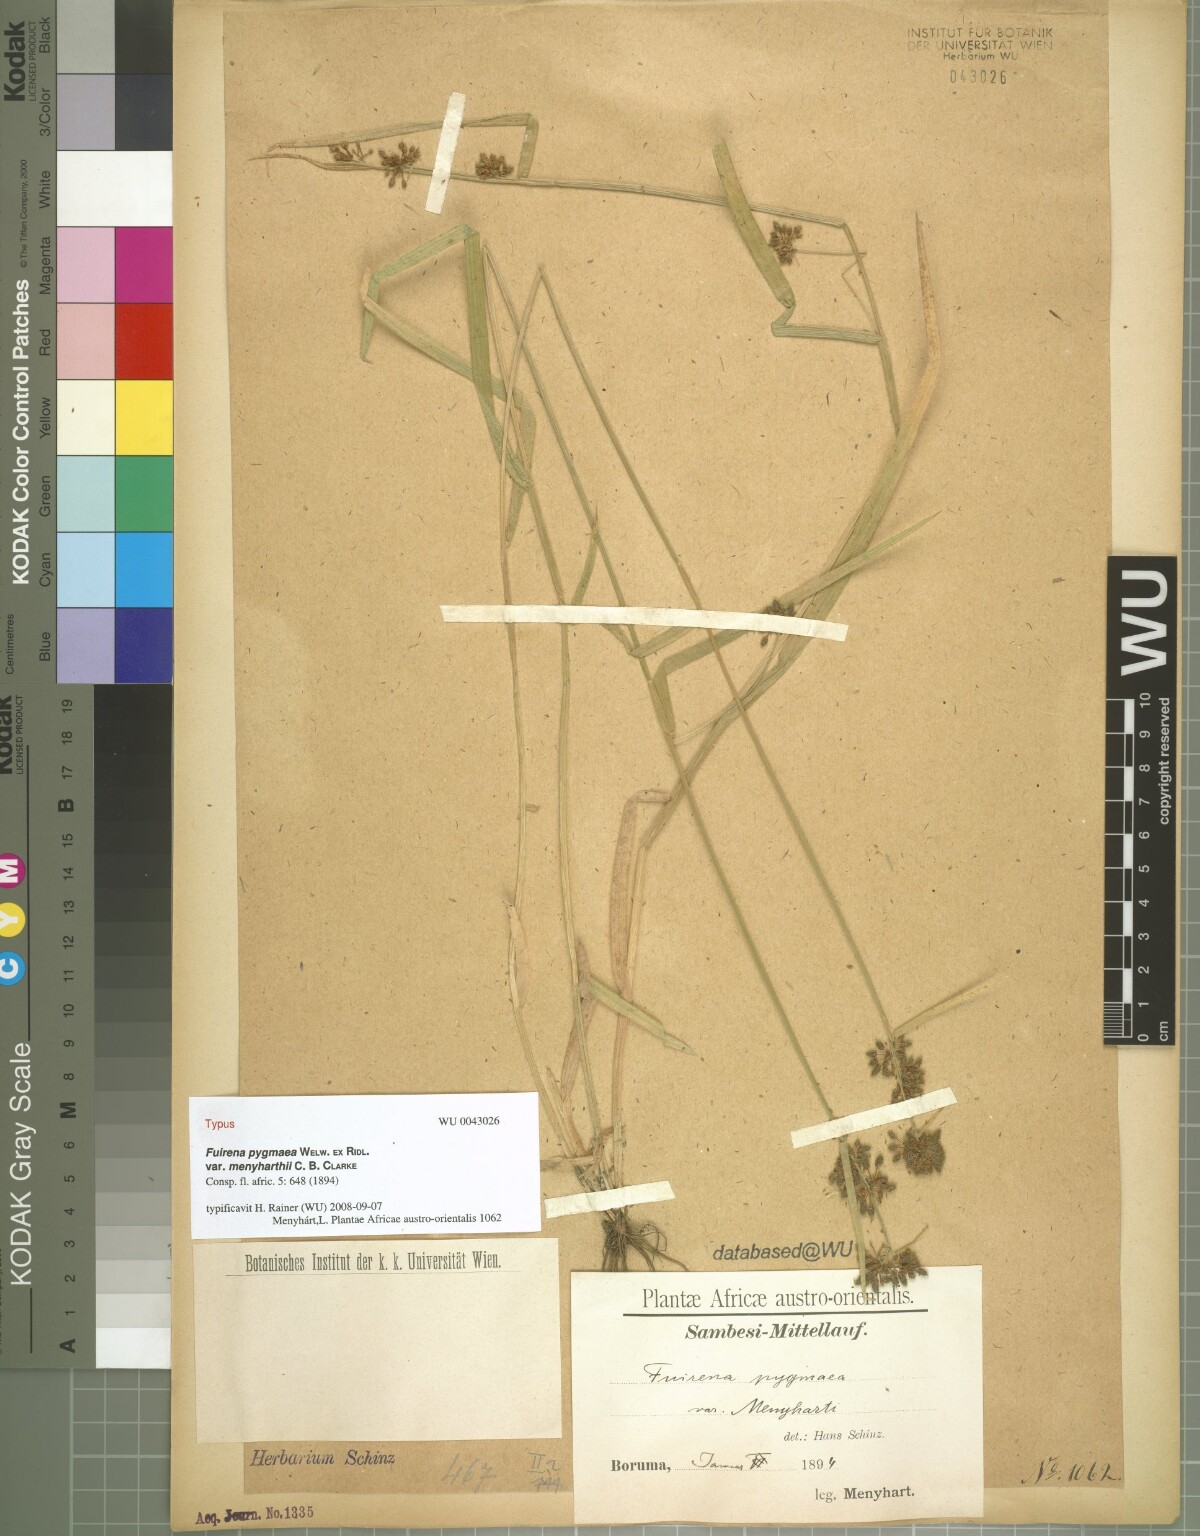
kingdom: Plantae
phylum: Tracheophyta
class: Liliopsida
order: Poales
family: Cyperaceae
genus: Fuirena
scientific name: Fuirena leptostachya
